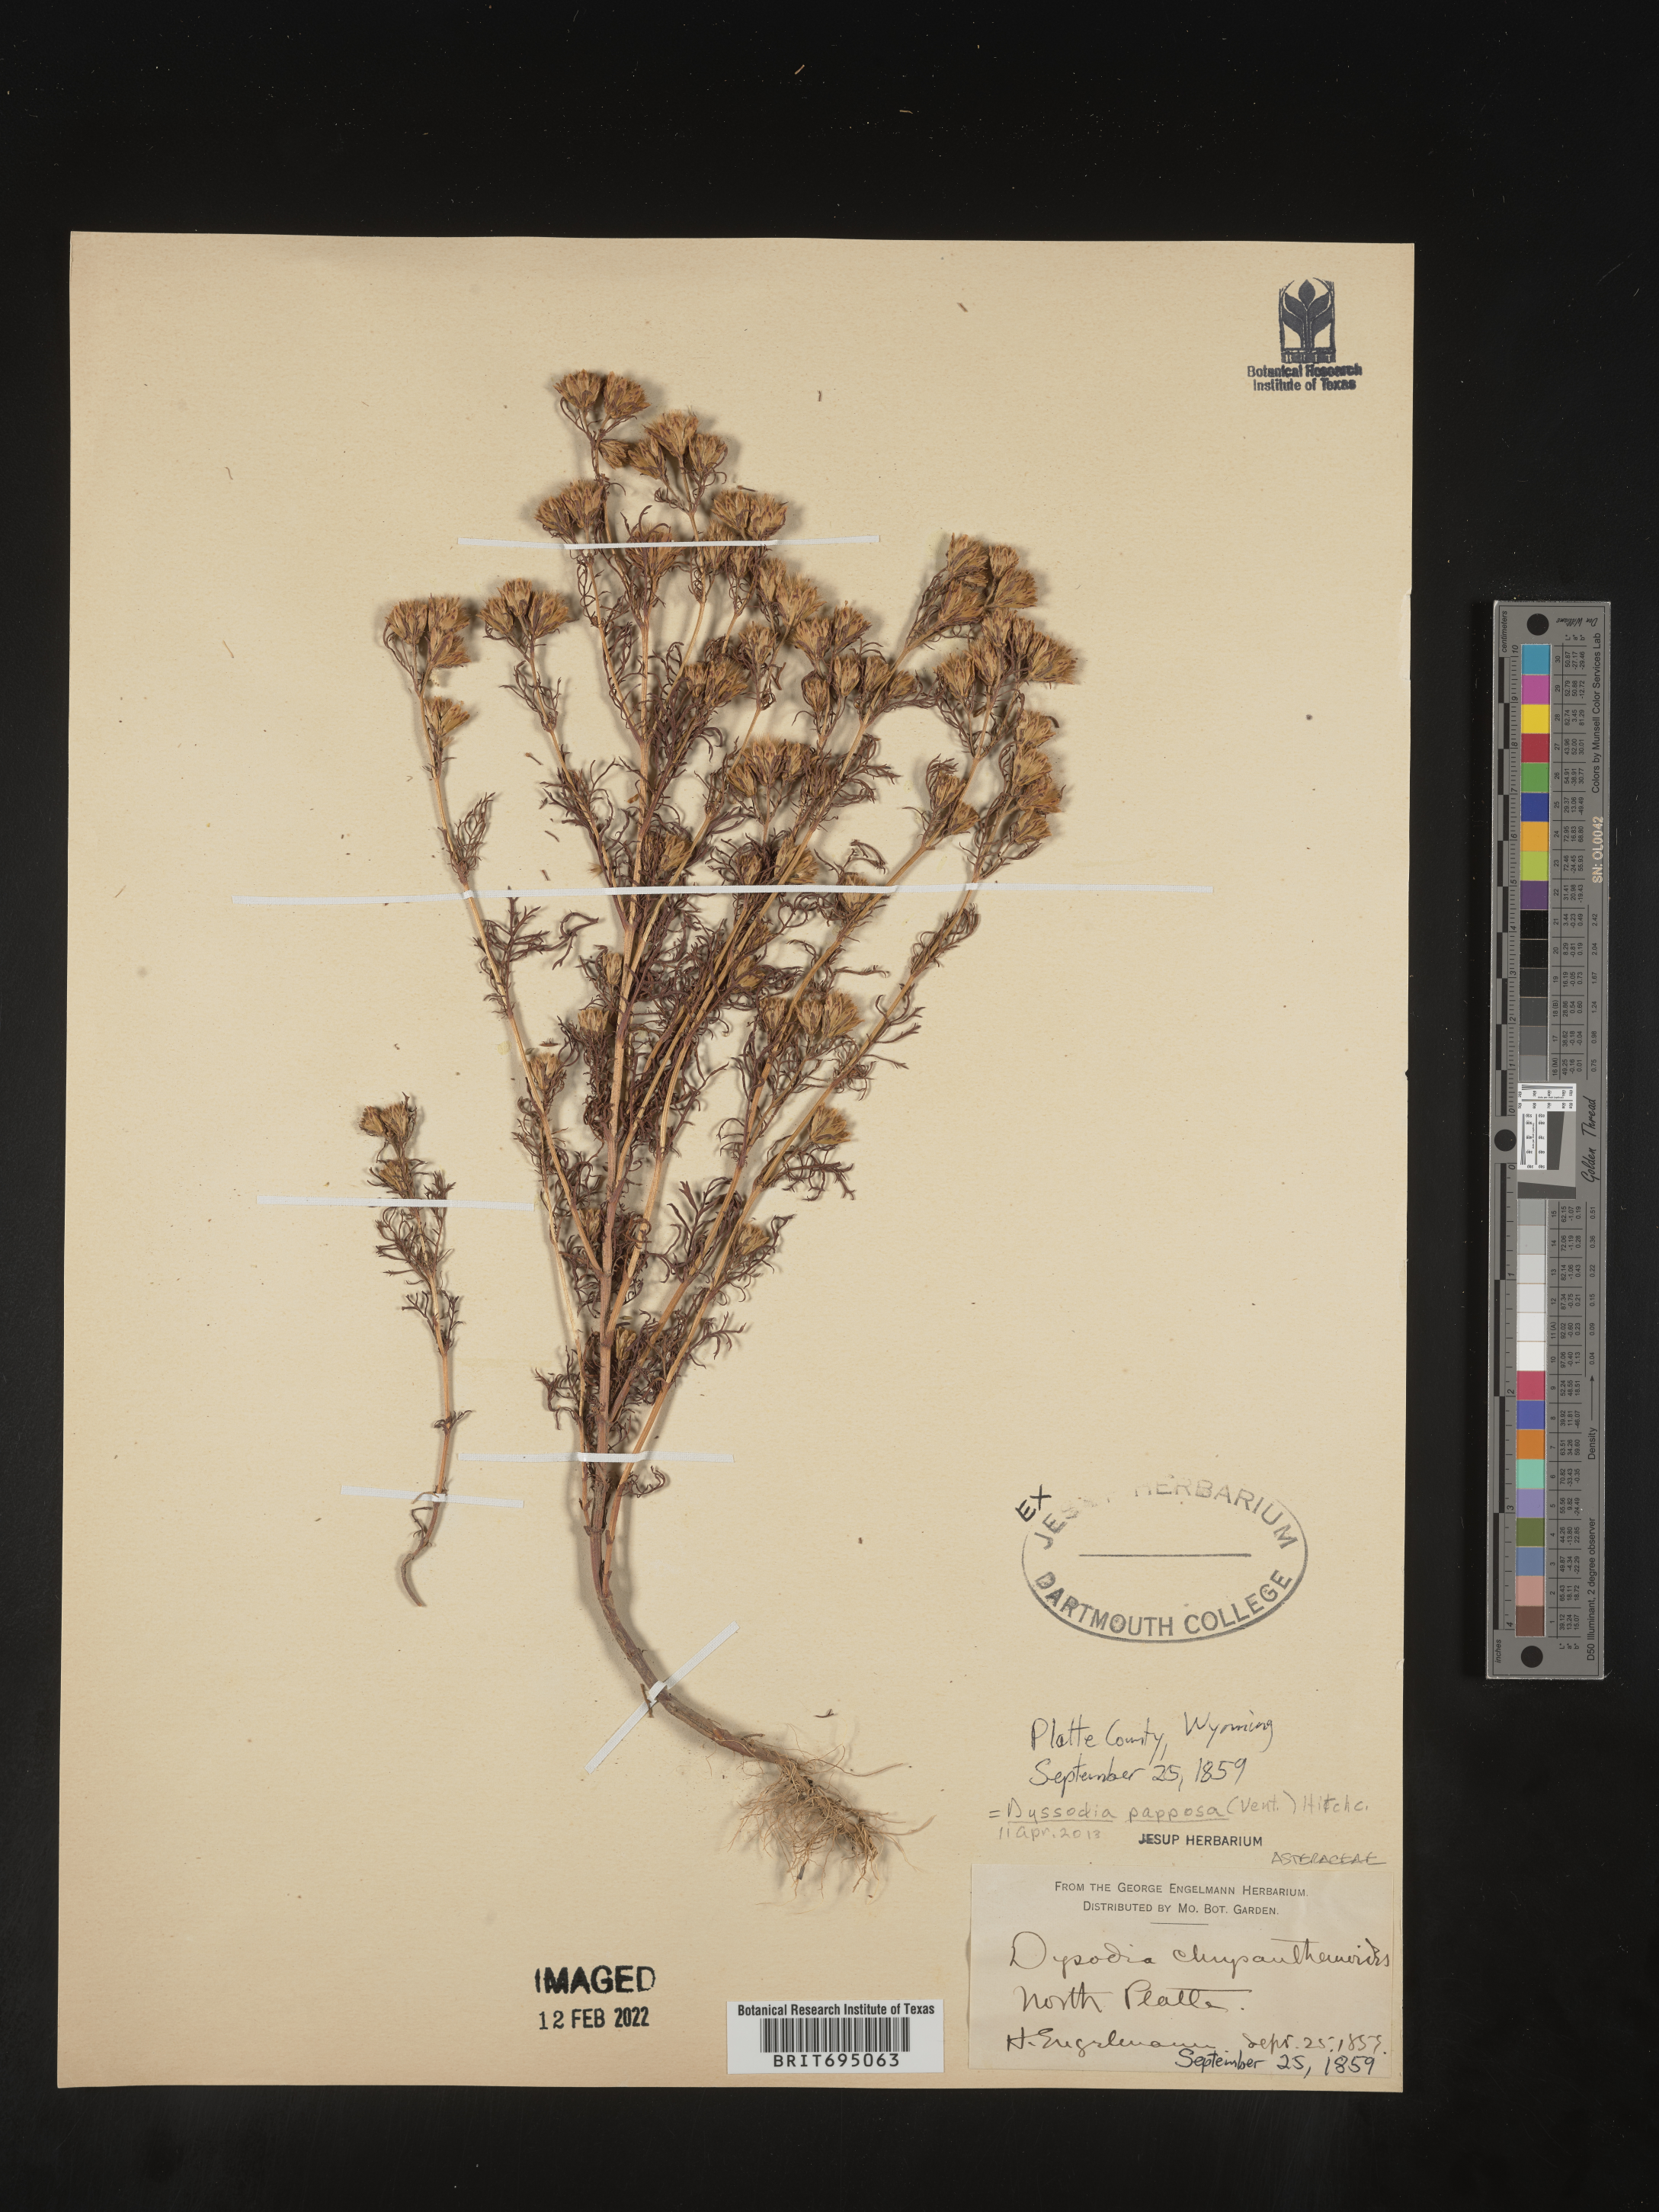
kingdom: Plantae
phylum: Tracheophyta
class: Magnoliopsida
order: Asterales
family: Asteraceae
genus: Dyssodia
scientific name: Dyssodia papposa
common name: Dogweed
